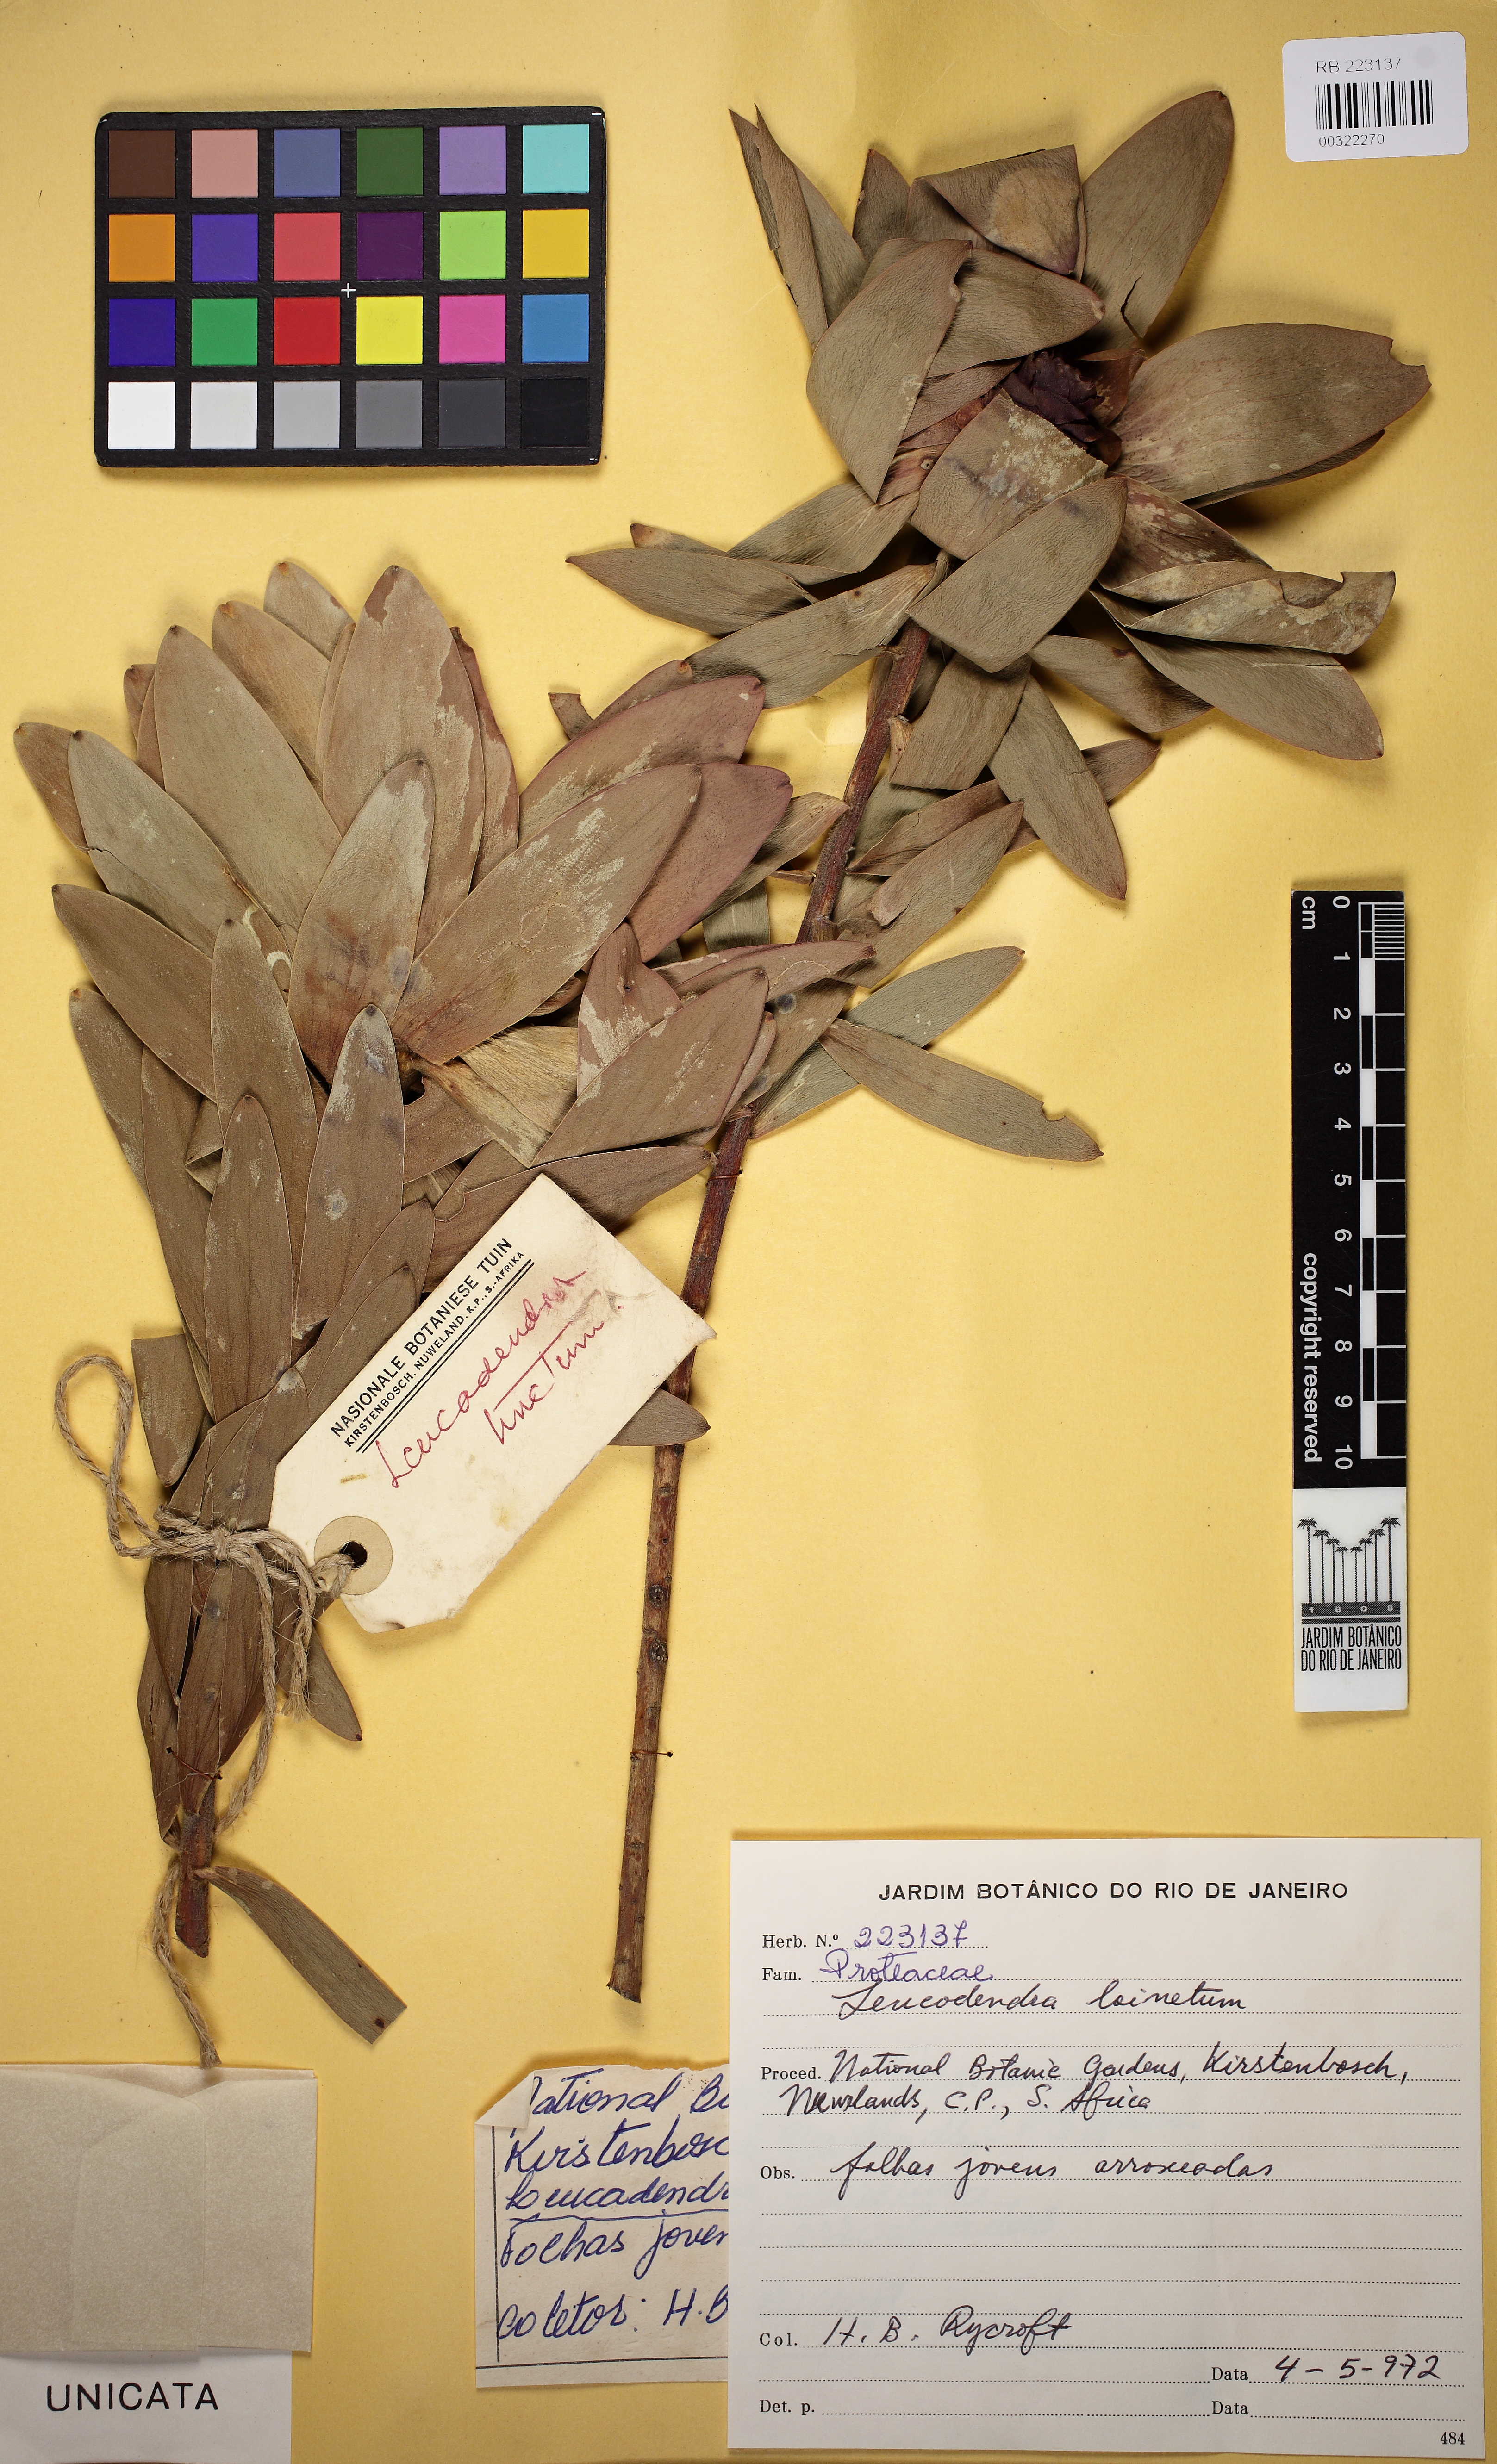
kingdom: Plantae
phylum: Tracheophyta
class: Magnoliopsida
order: Proteales
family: Proteaceae
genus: Leucadendron
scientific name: Leucadendron
